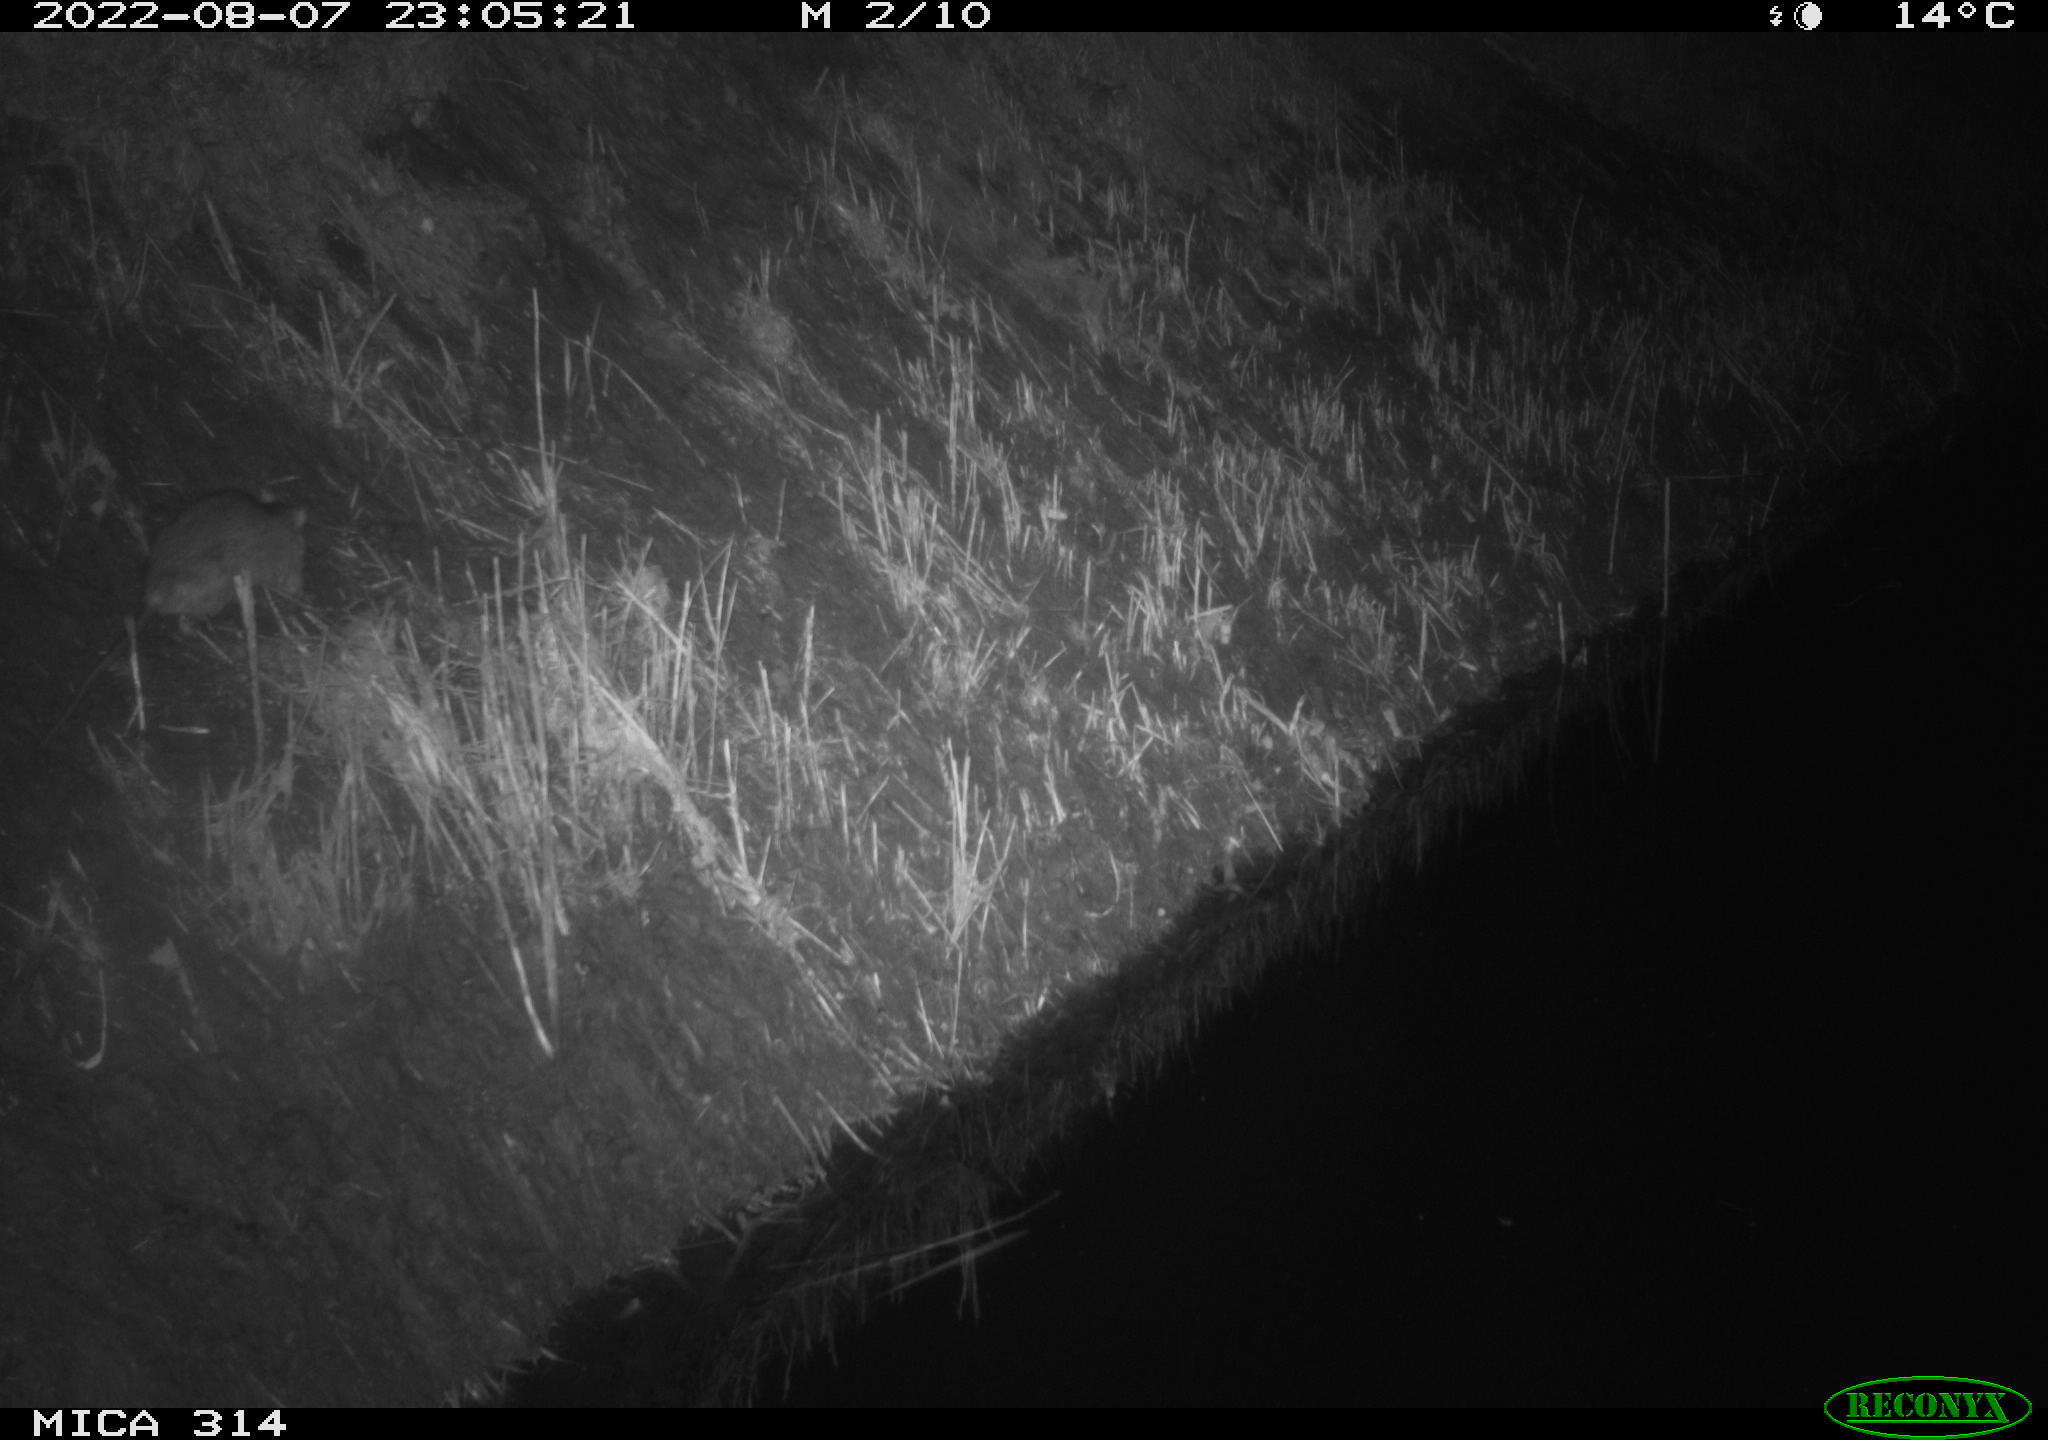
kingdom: Animalia
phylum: Chordata
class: Mammalia
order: Rodentia
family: Muridae
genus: Rattus
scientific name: Rattus norvegicus
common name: Brown rat
